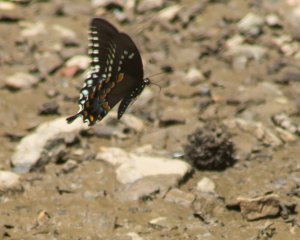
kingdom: Animalia
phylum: Arthropoda
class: Insecta
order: Lepidoptera
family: Papilionidae
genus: Pterourus
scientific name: Pterourus troilus
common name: Spicebush Swallowtail
